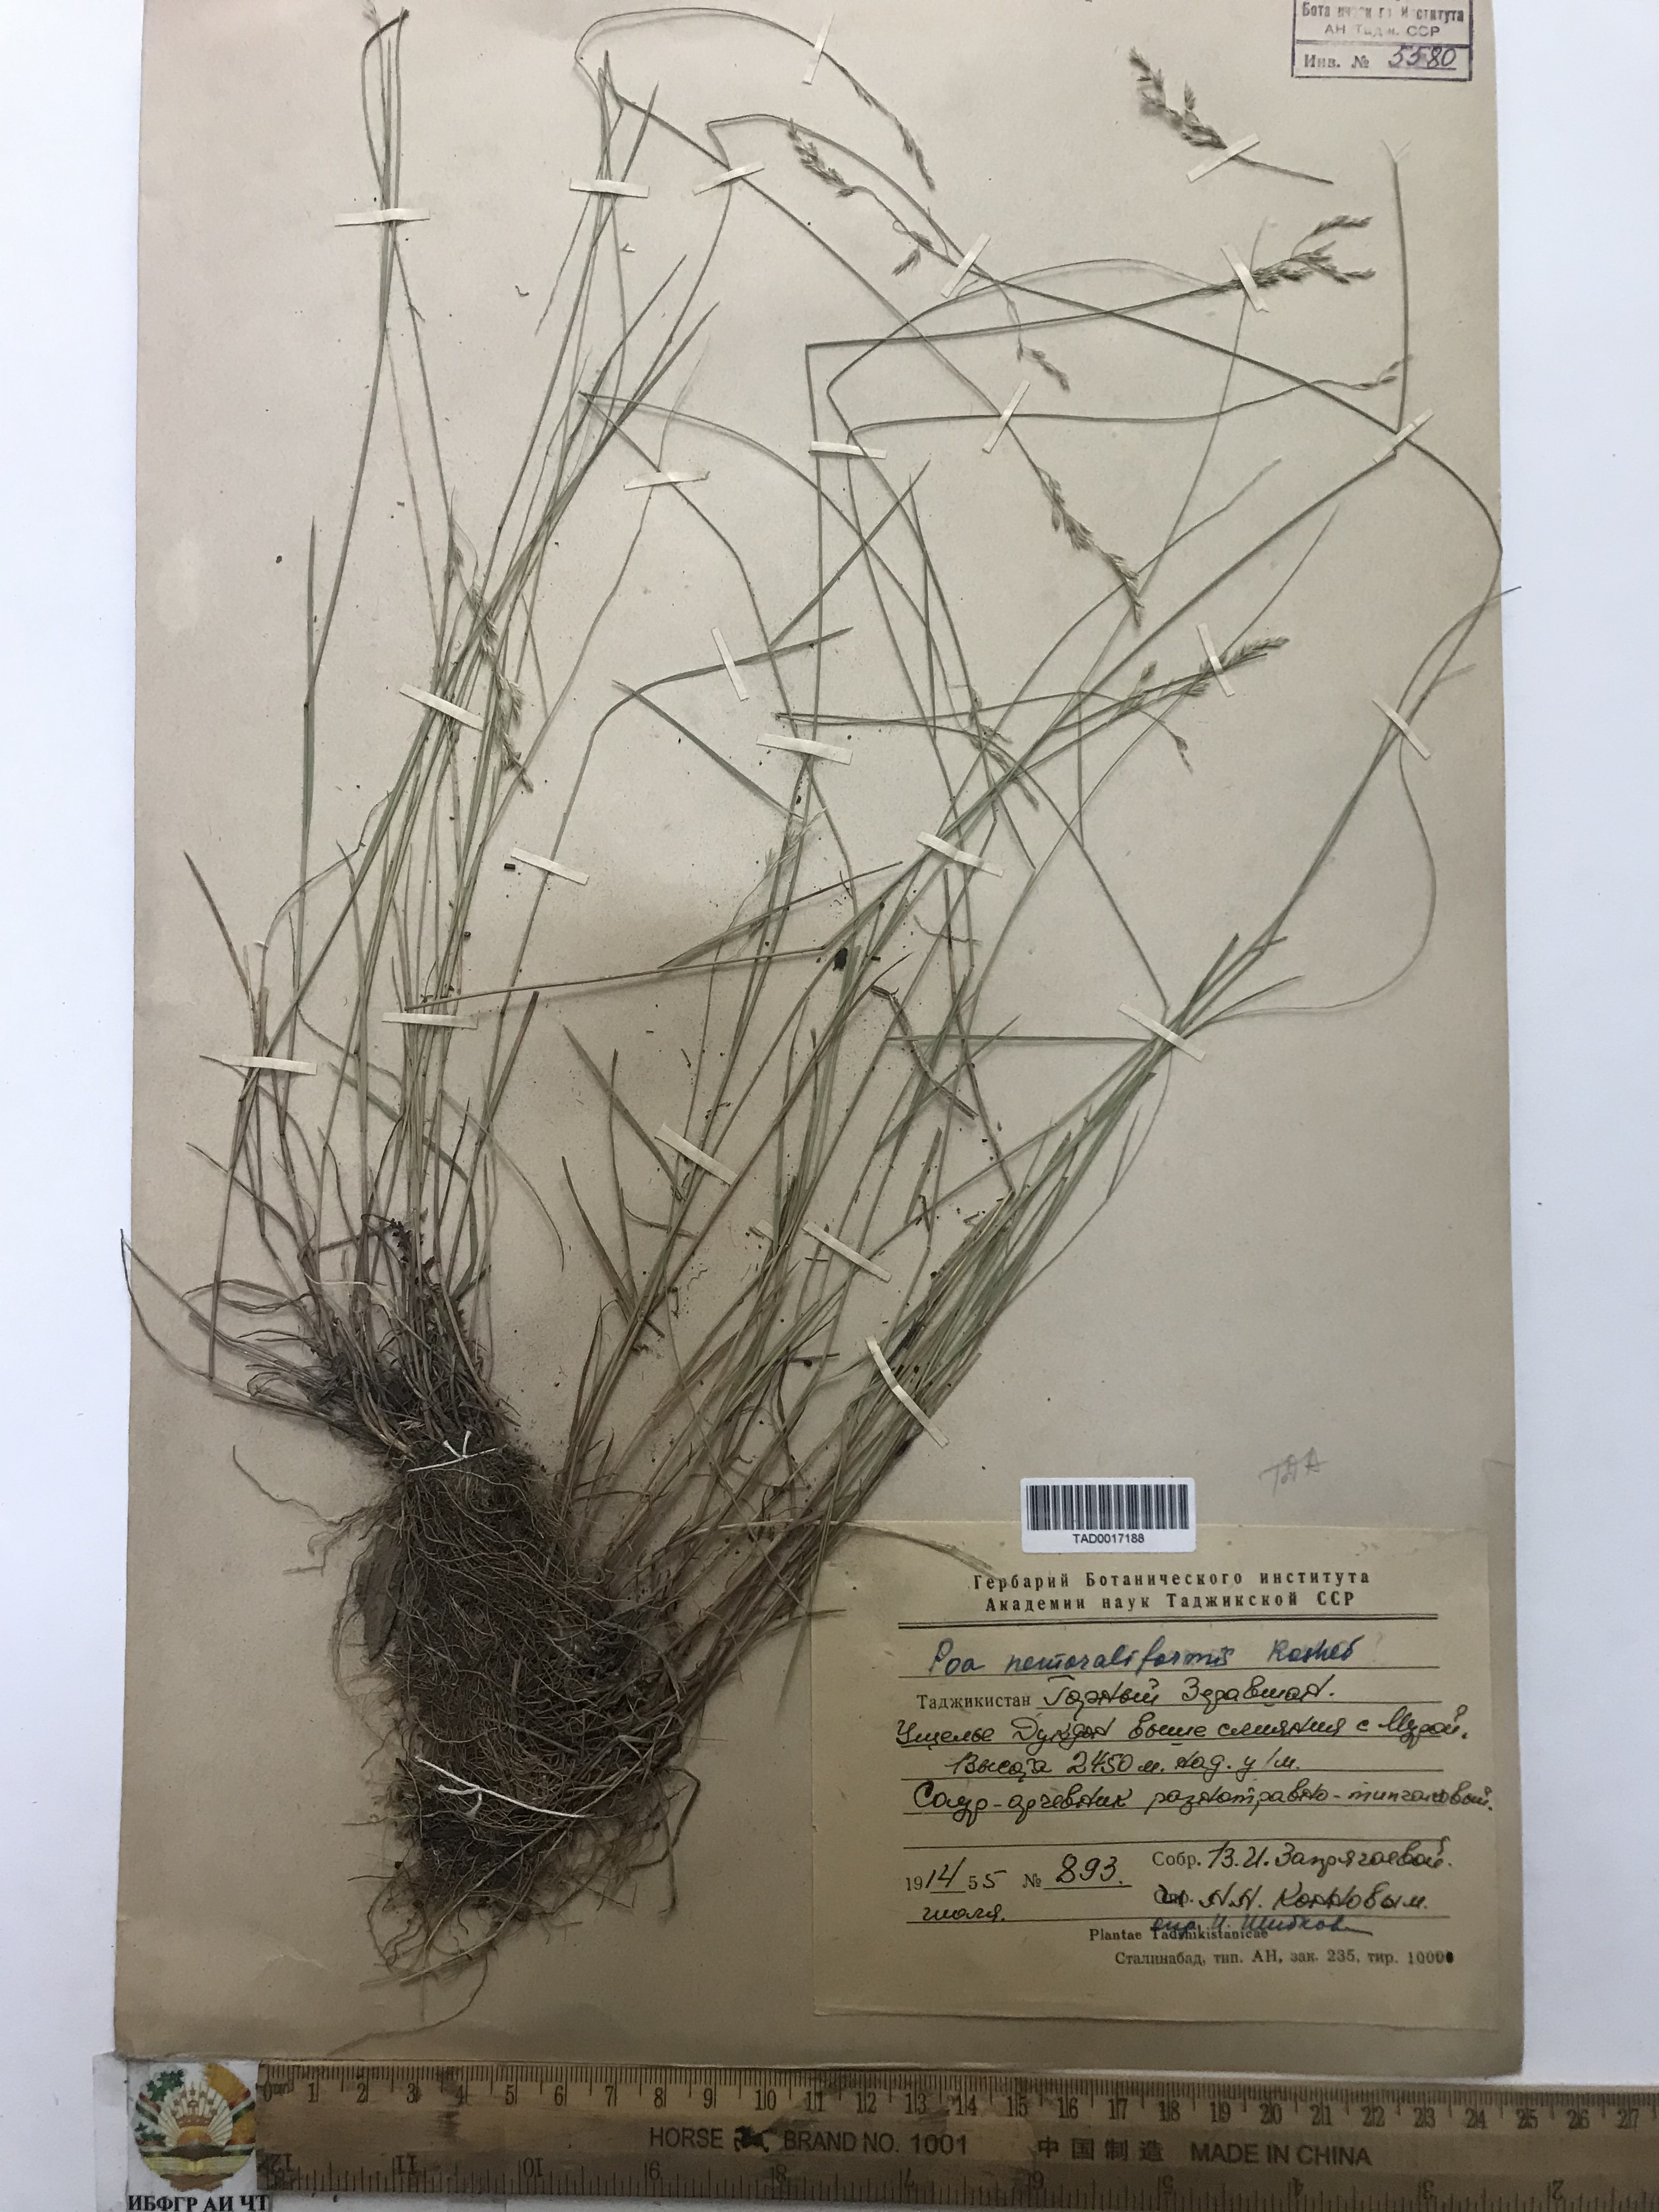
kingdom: Plantae
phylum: Tracheophyta
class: Liliopsida
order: Poales
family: Poaceae
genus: Poa
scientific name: Poa urssulensis
